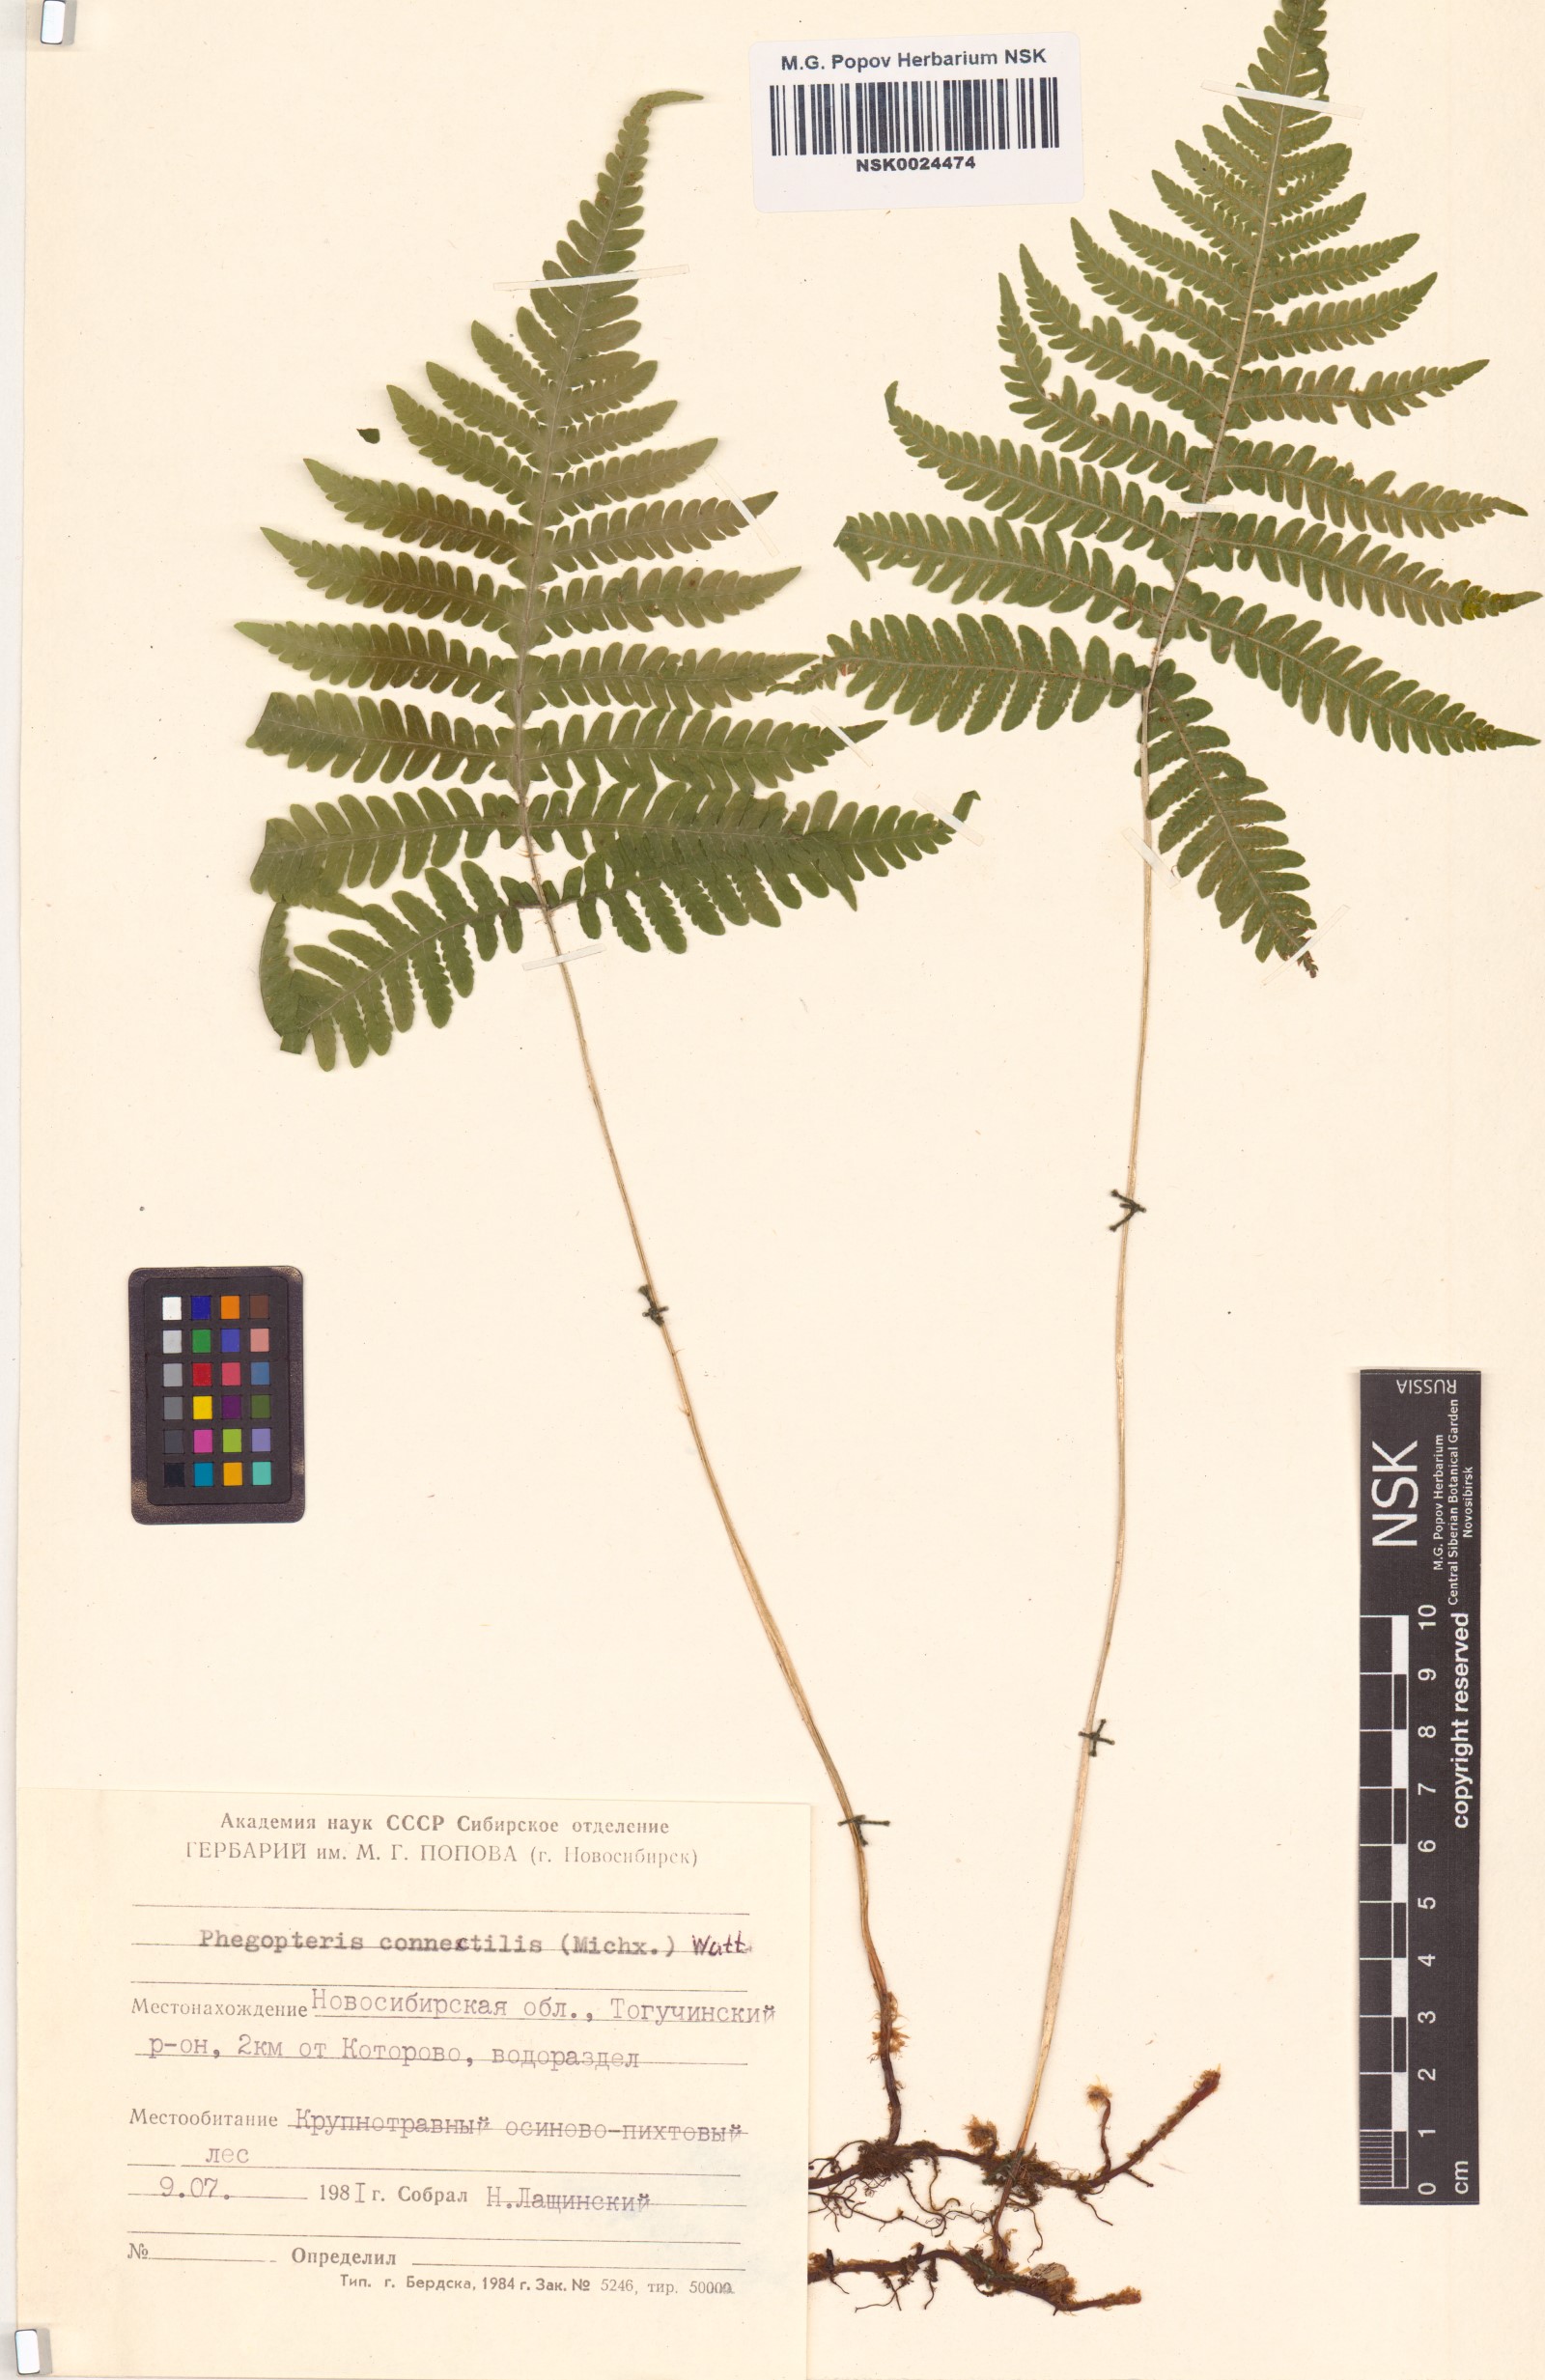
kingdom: Plantae
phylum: Tracheophyta
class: Polypodiopsida
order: Polypodiales
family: Thelypteridaceae
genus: Phegopteris
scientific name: Phegopteris connectilis
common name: Beech fern
